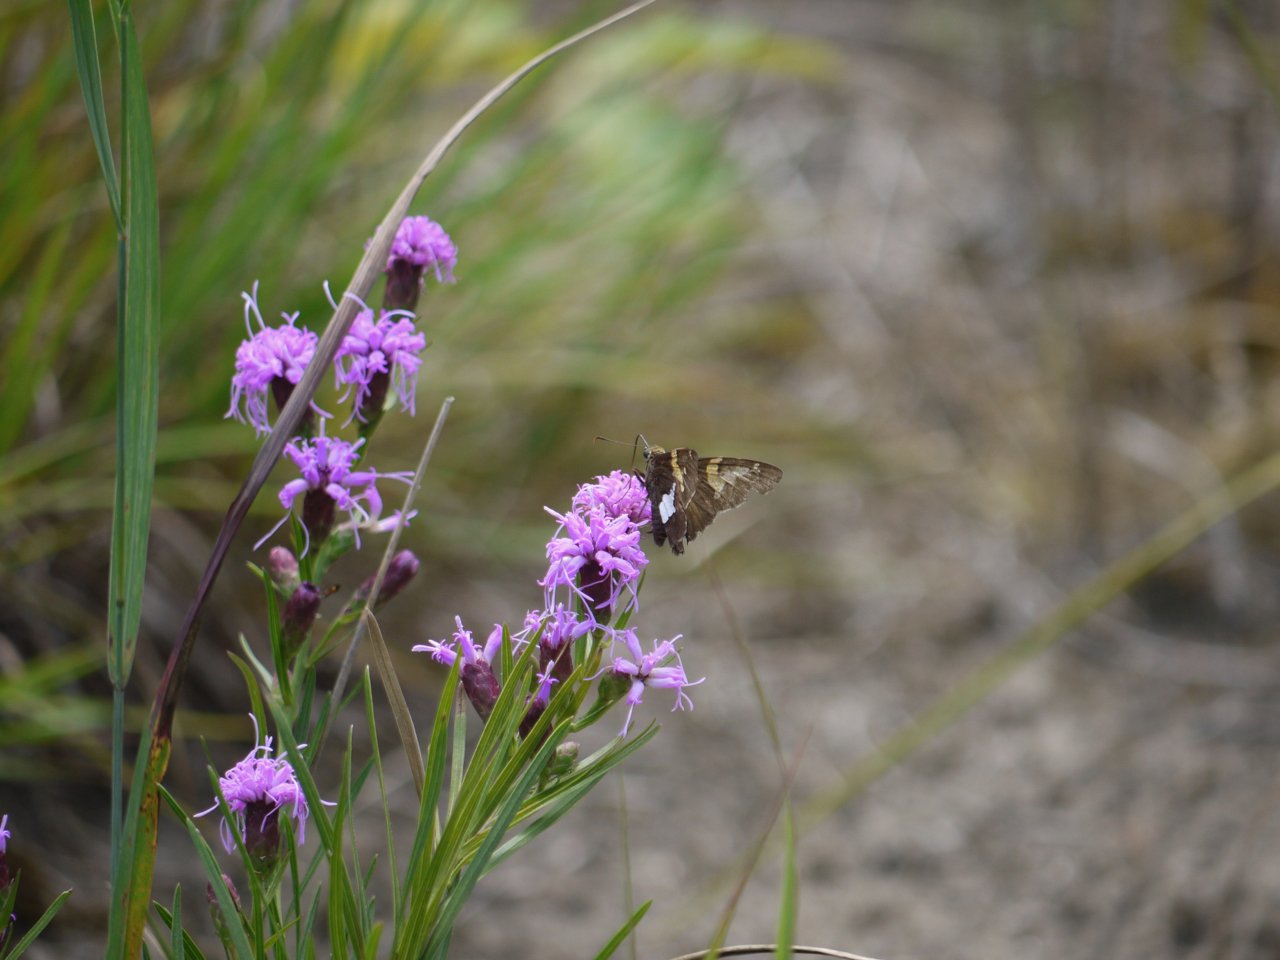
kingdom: Animalia
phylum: Arthropoda
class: Insecta
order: Lepidoptera
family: Hesperiidae
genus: Epargyreus
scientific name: Epargyreus clarus
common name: Silver-spotted Skipper
